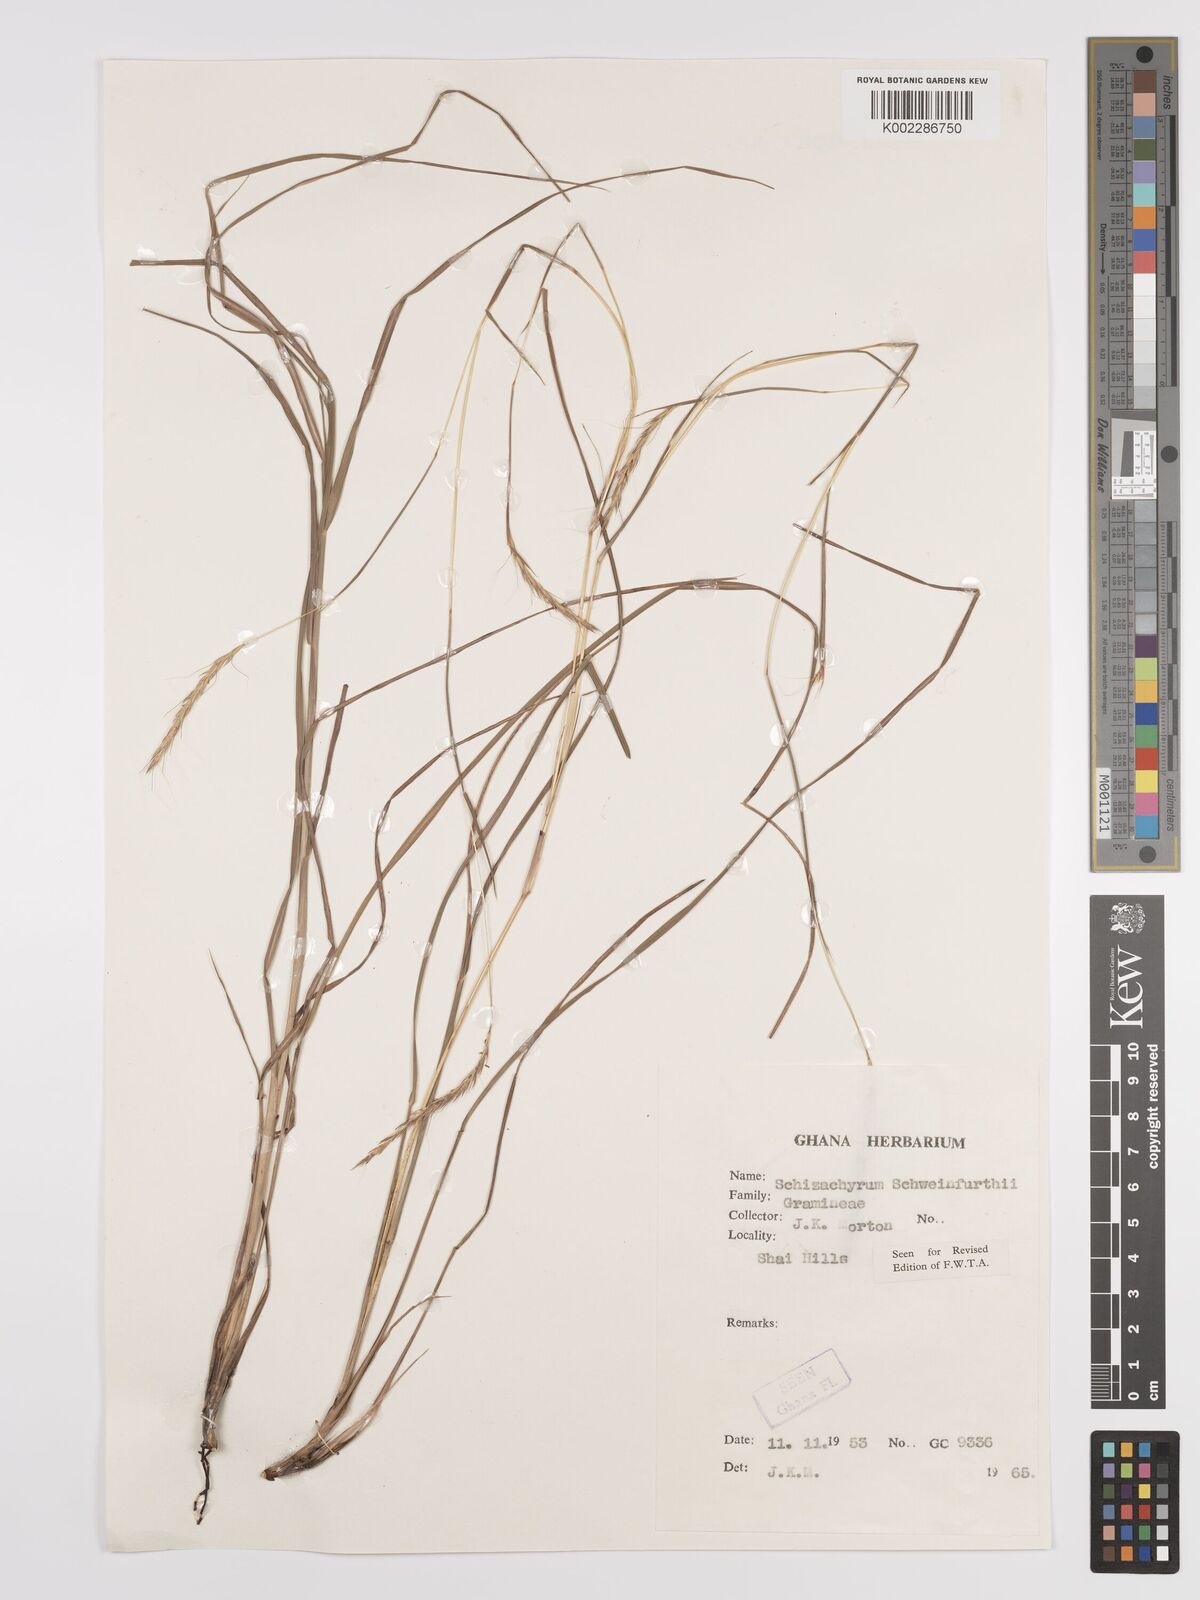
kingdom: Plantae
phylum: Tracheophyta
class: Liliopsida
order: Poales
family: Poaceae
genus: Andropogon
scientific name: Andropogon schweinfurthii
